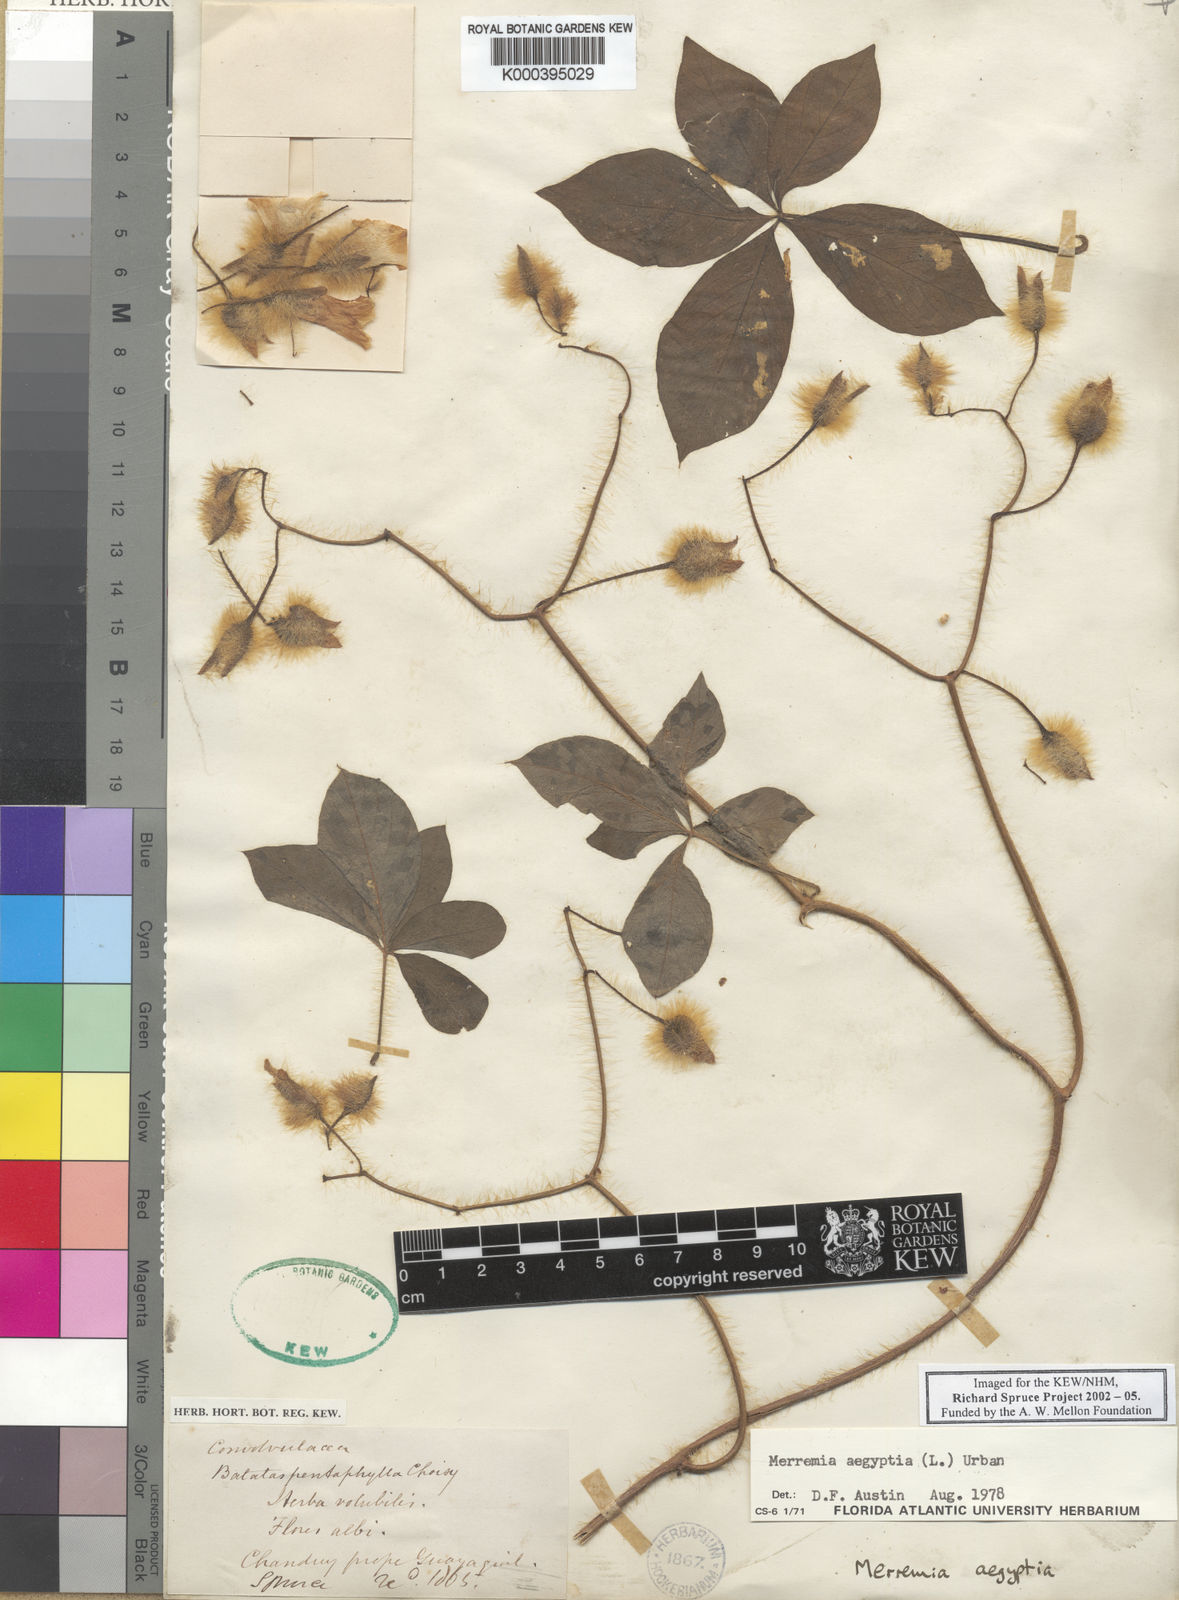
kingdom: Plantae
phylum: Tracheophyta
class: Magnoliopsida
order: Solanales
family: Convolvulaceae
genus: Distimake
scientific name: Distimake aegyptius
